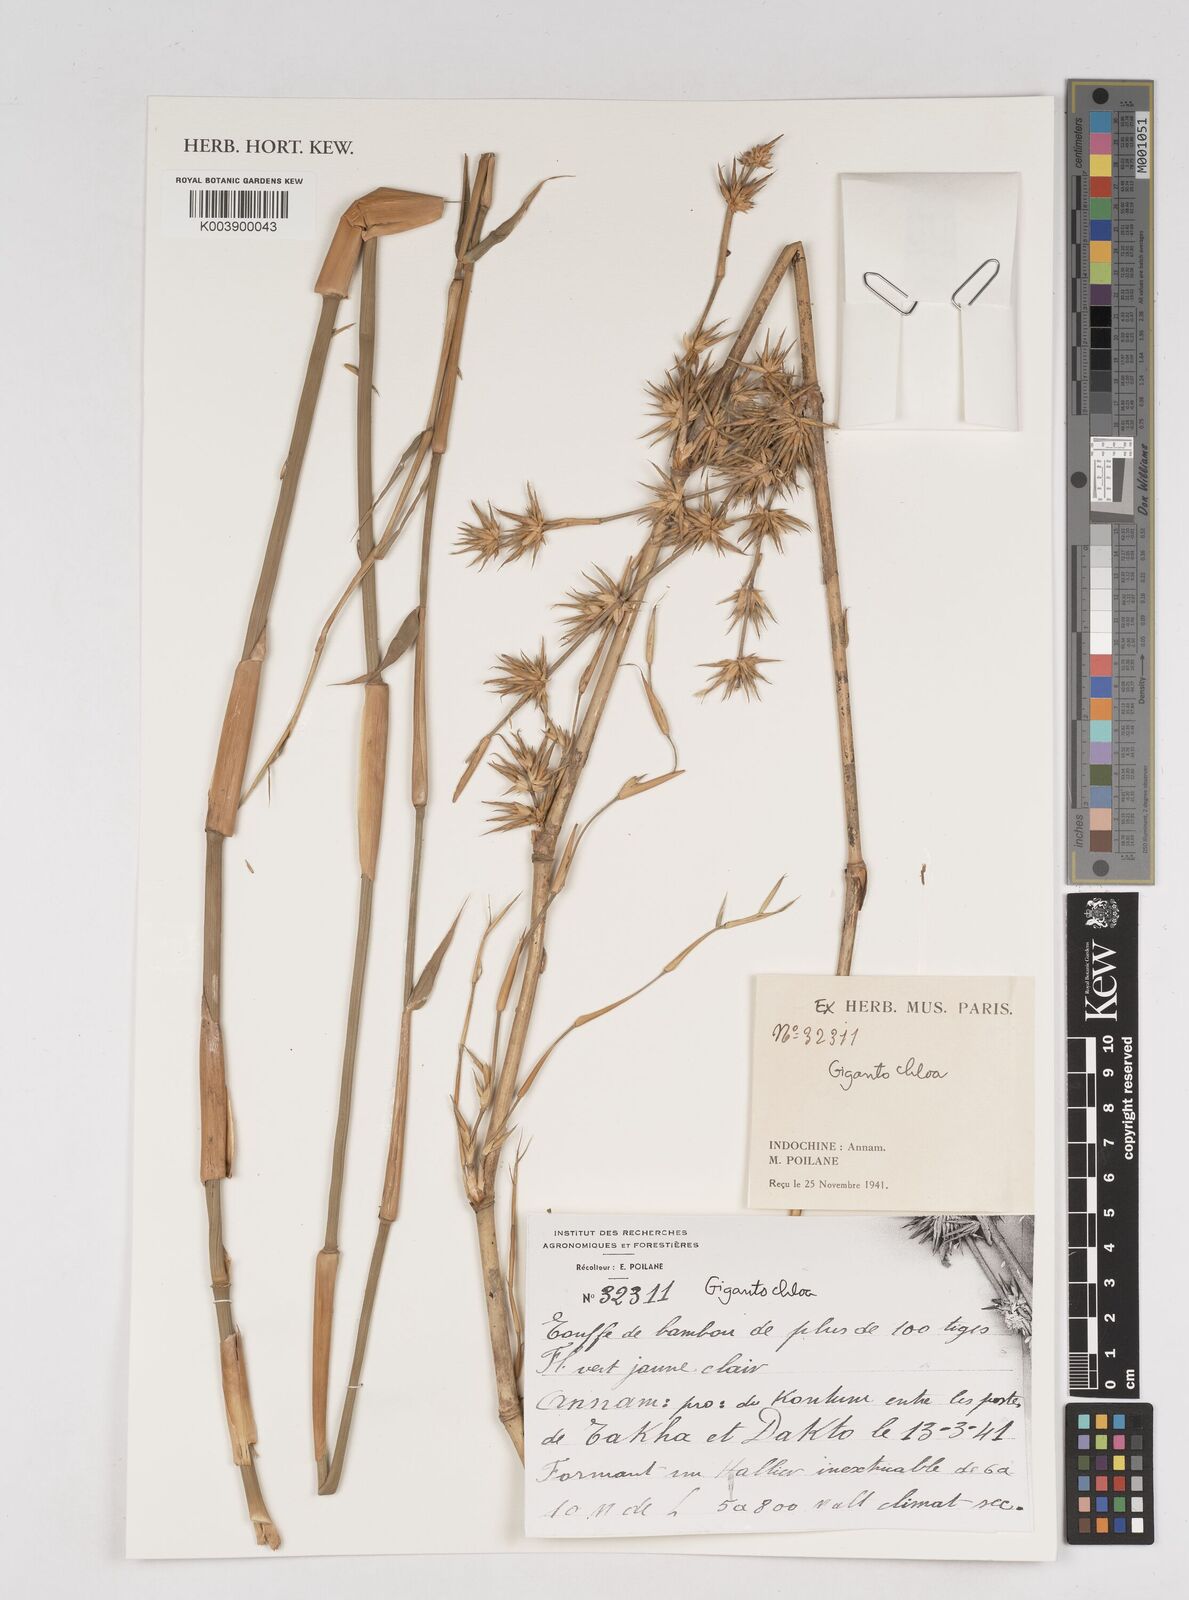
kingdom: Plantae
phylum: Tracheophyta
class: Liliopsida
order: Poales
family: Poaceae
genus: Gigantochloa
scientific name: Gigantochloa
